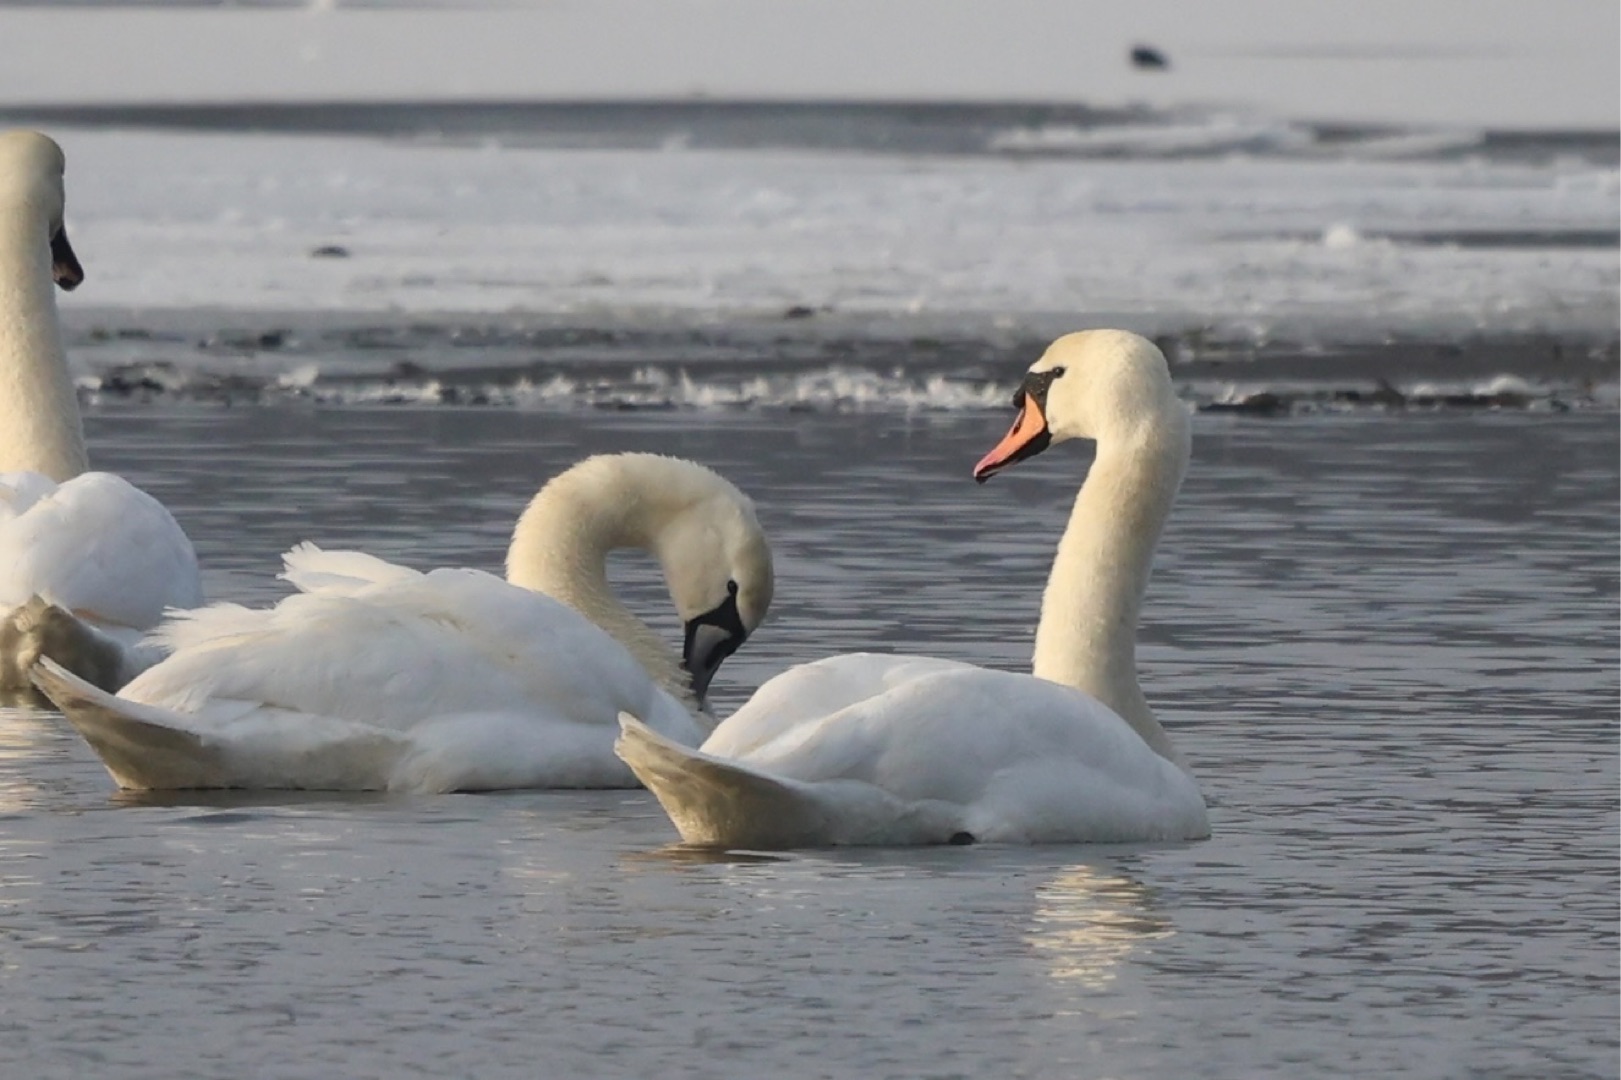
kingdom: Animalia
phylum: Chordata
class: Aves
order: Anseriformes
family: Anatidae
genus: Cygnus
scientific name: Cygnus olor
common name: Knopsvane
